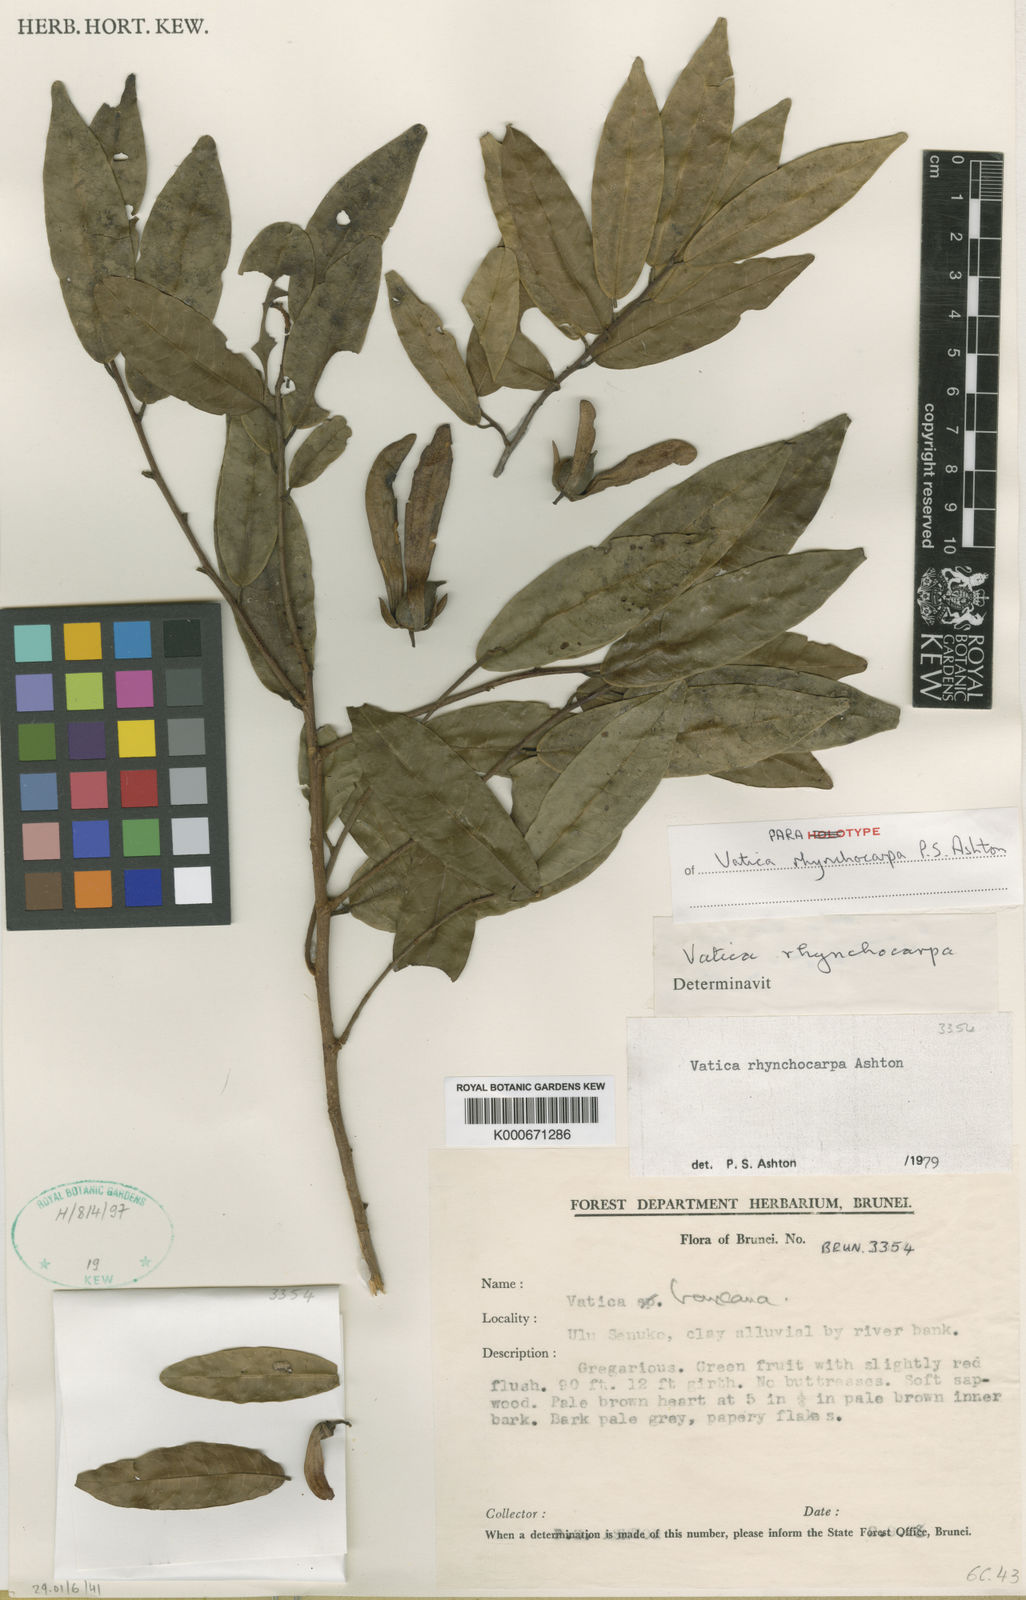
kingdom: Plantae
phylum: Tracheophyta
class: Magnoliopsida
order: Malvales
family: Dipterocarpaceae
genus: Vatica
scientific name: Vatica rynchocarpa
